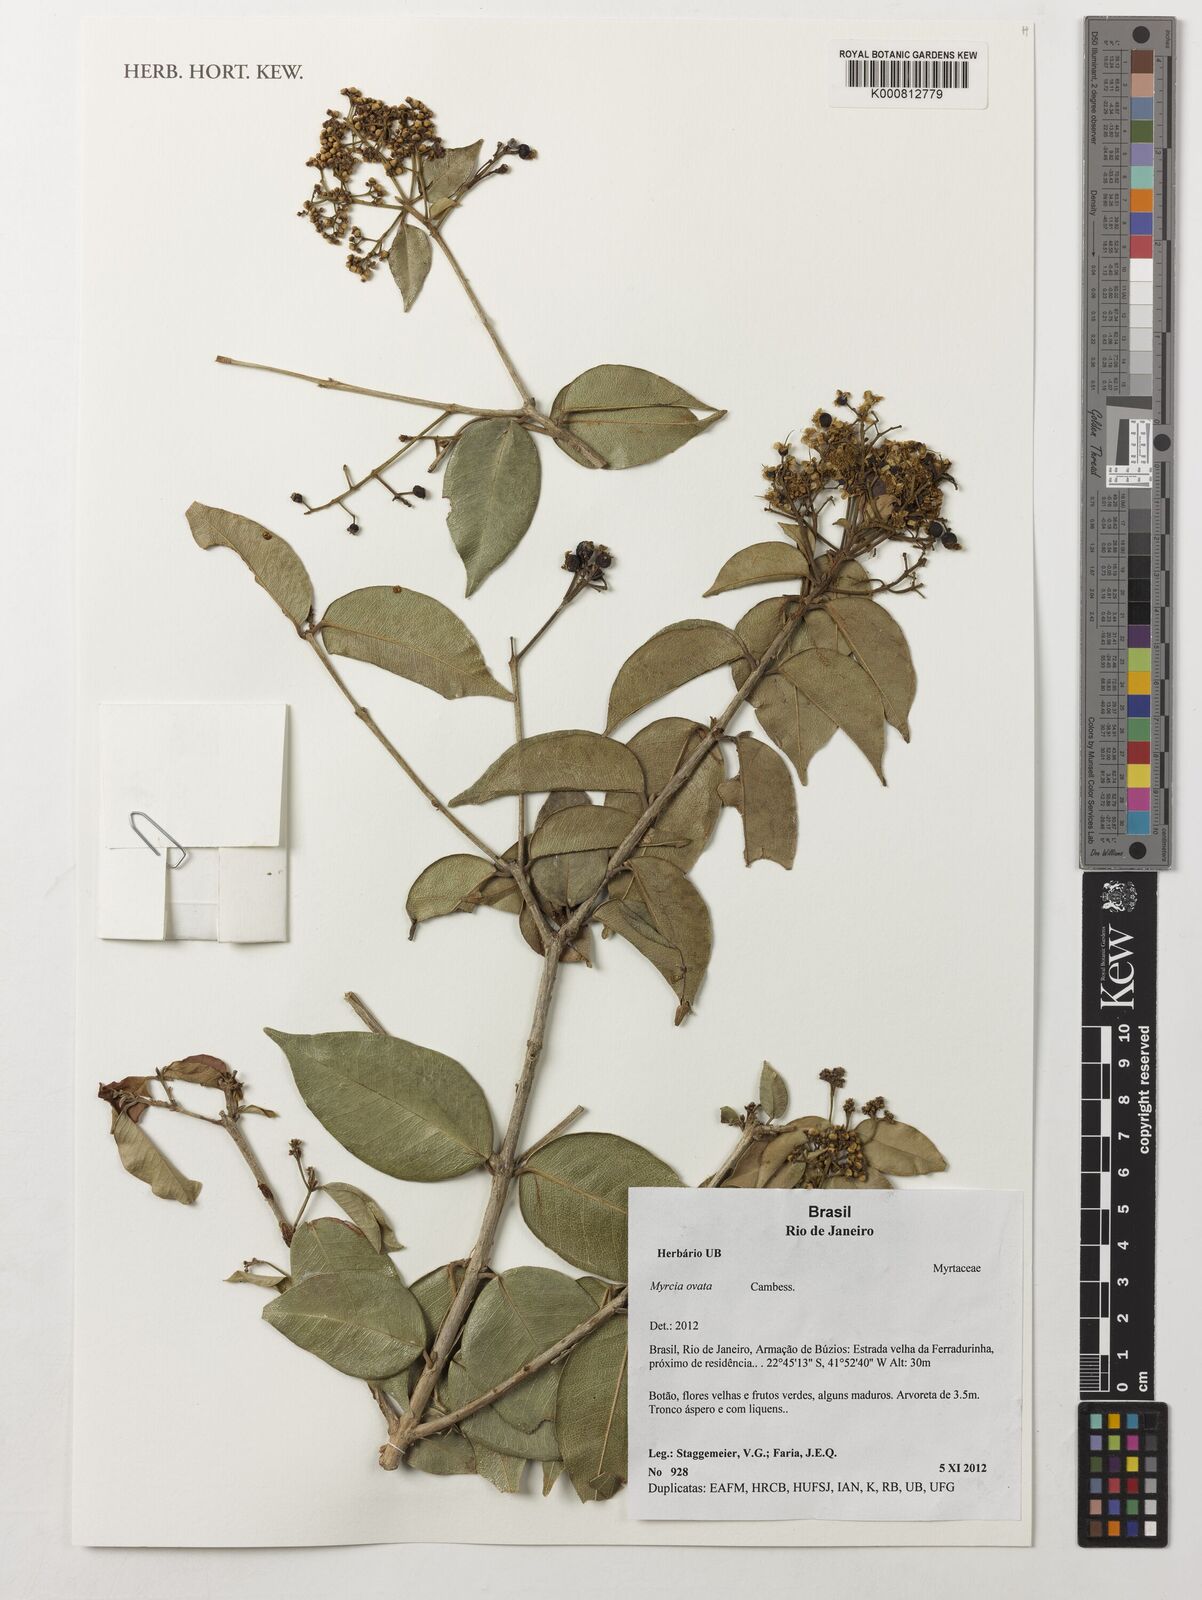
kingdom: Plantae
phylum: Tracheophyta
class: Magnoliopsida
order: Myrtales
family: Myrtaceae
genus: Myrcia
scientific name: Myrcia ovata
